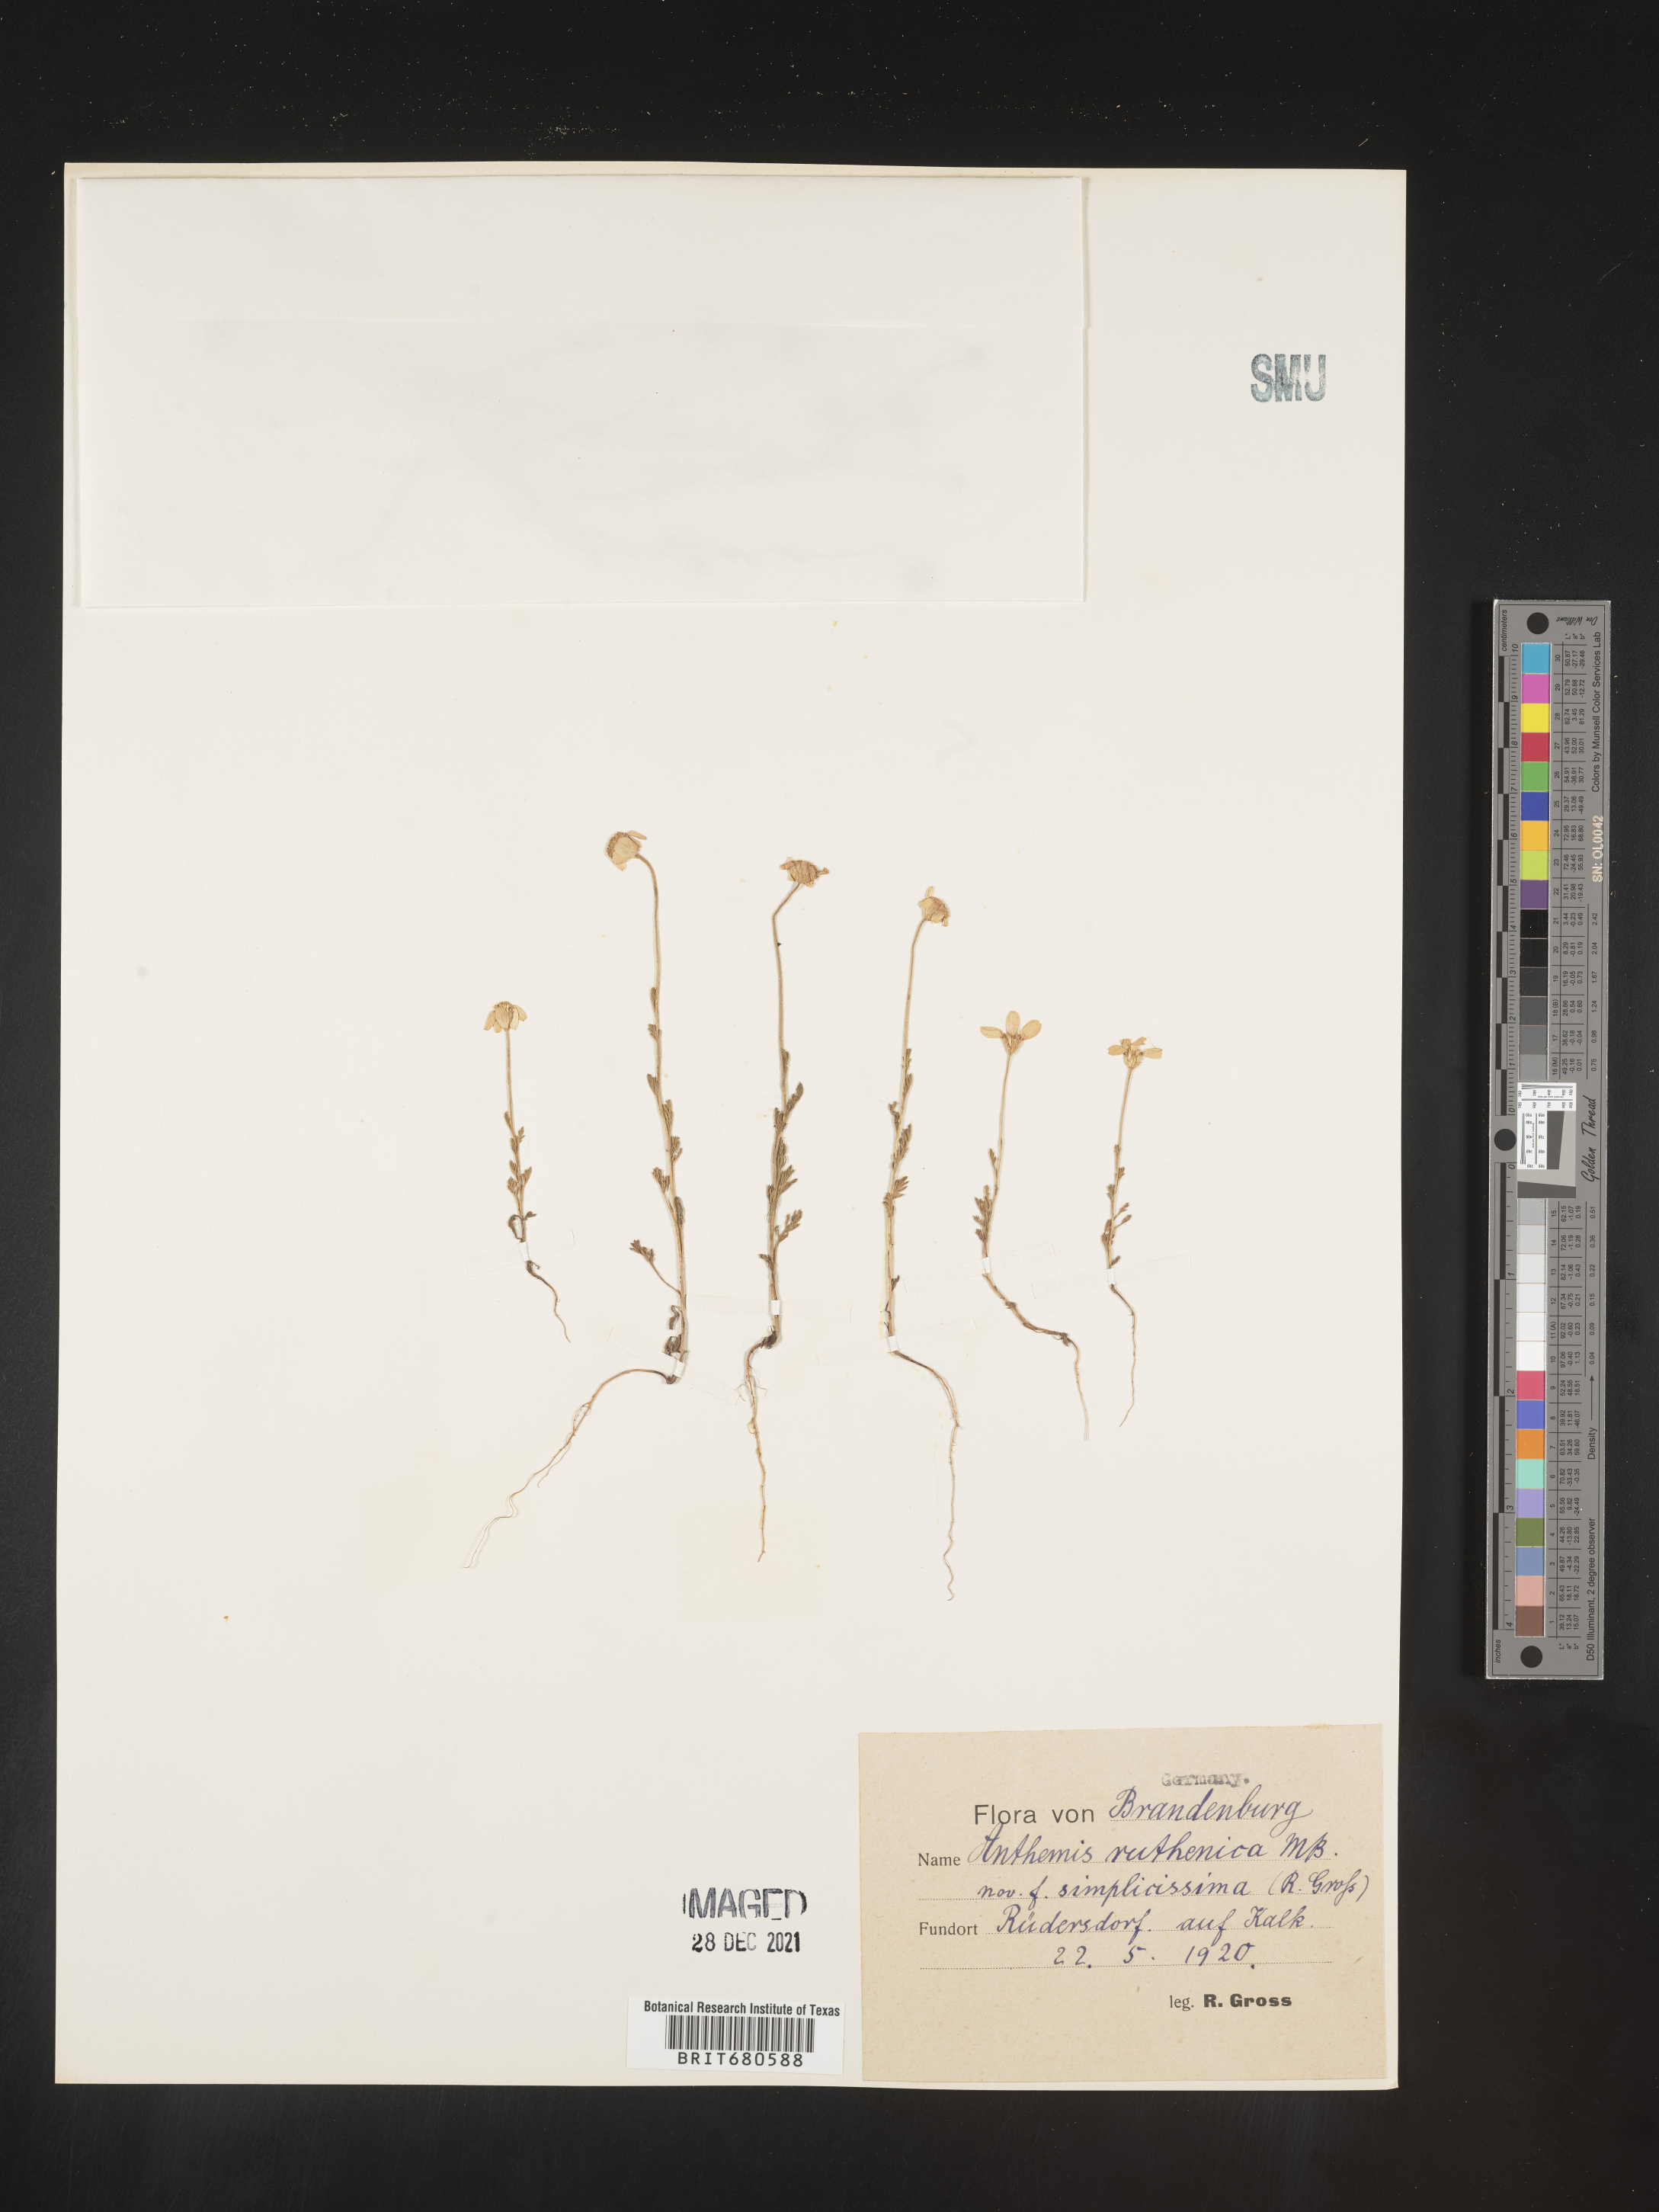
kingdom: Plantae
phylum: Tracheophyta
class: Magnoliopsida
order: Asterales
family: Asteraceae
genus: Anthemis
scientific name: Anthemis
